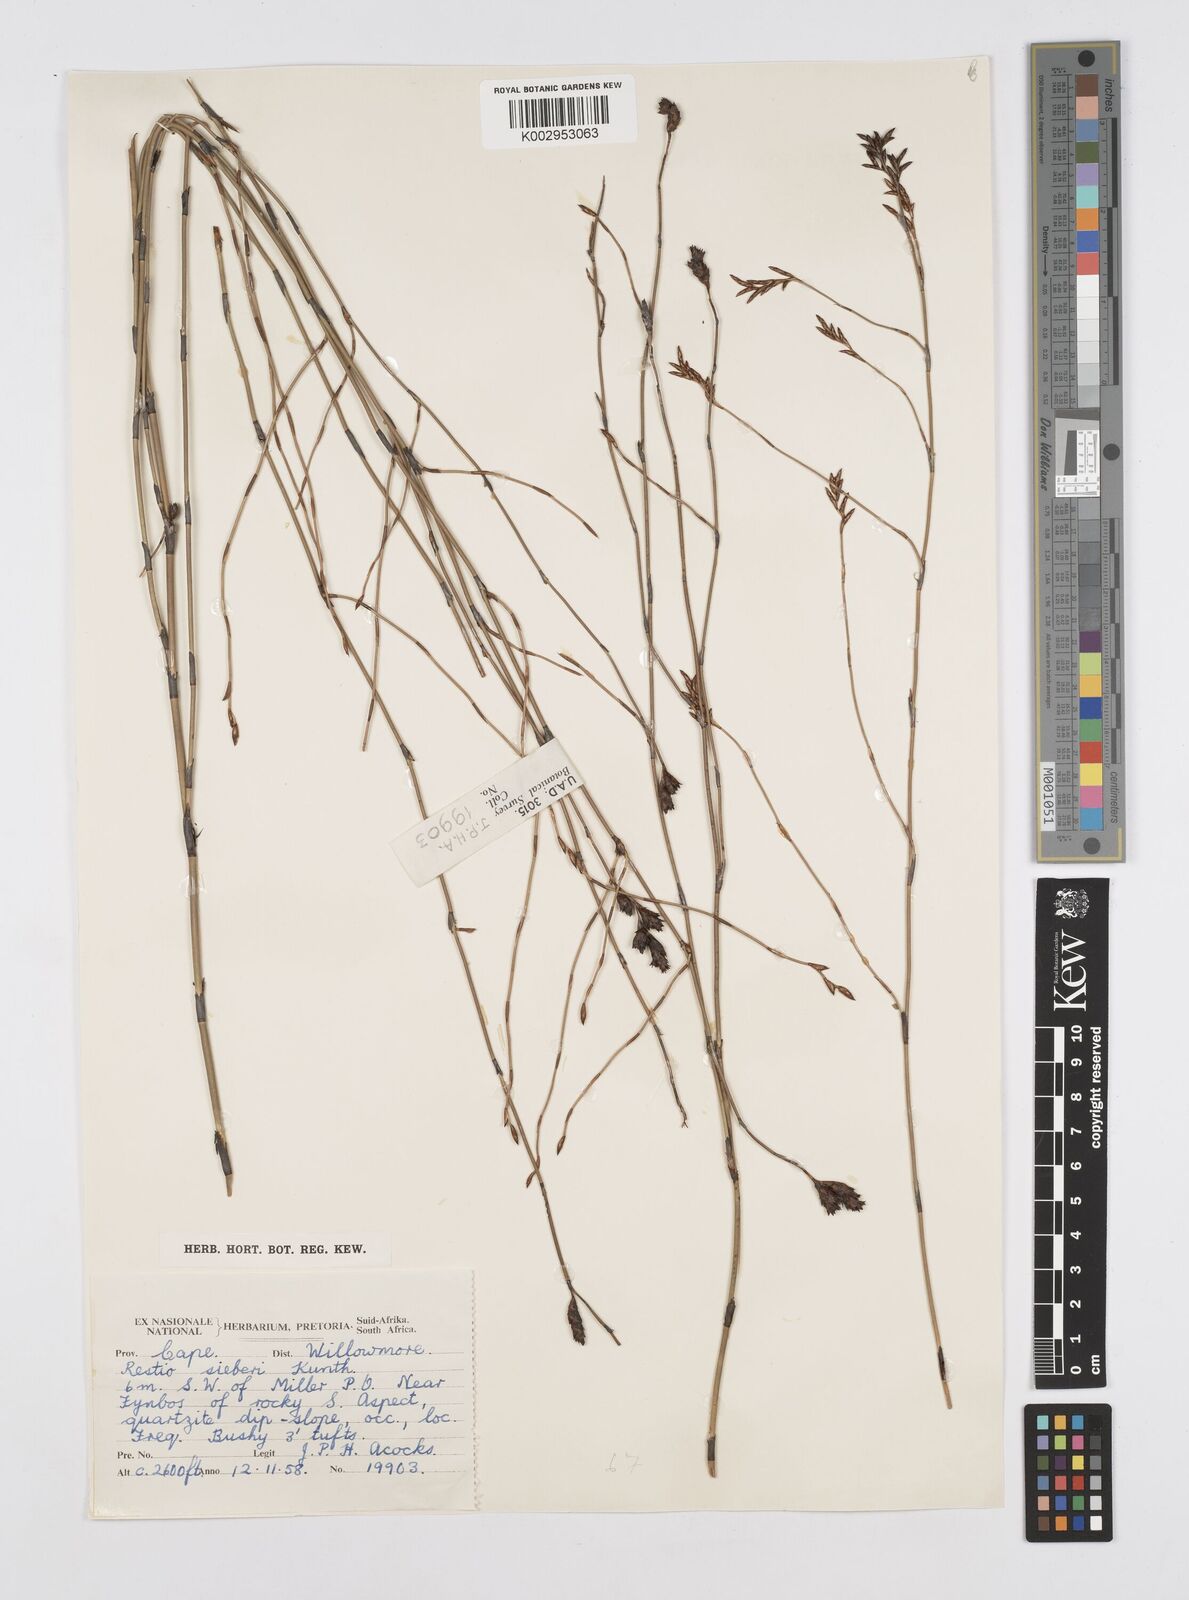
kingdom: Plantae
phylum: Tracheophyta
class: Liliopsida
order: Poales
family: Restionaceae
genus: Restio
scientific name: Restio sieberi
